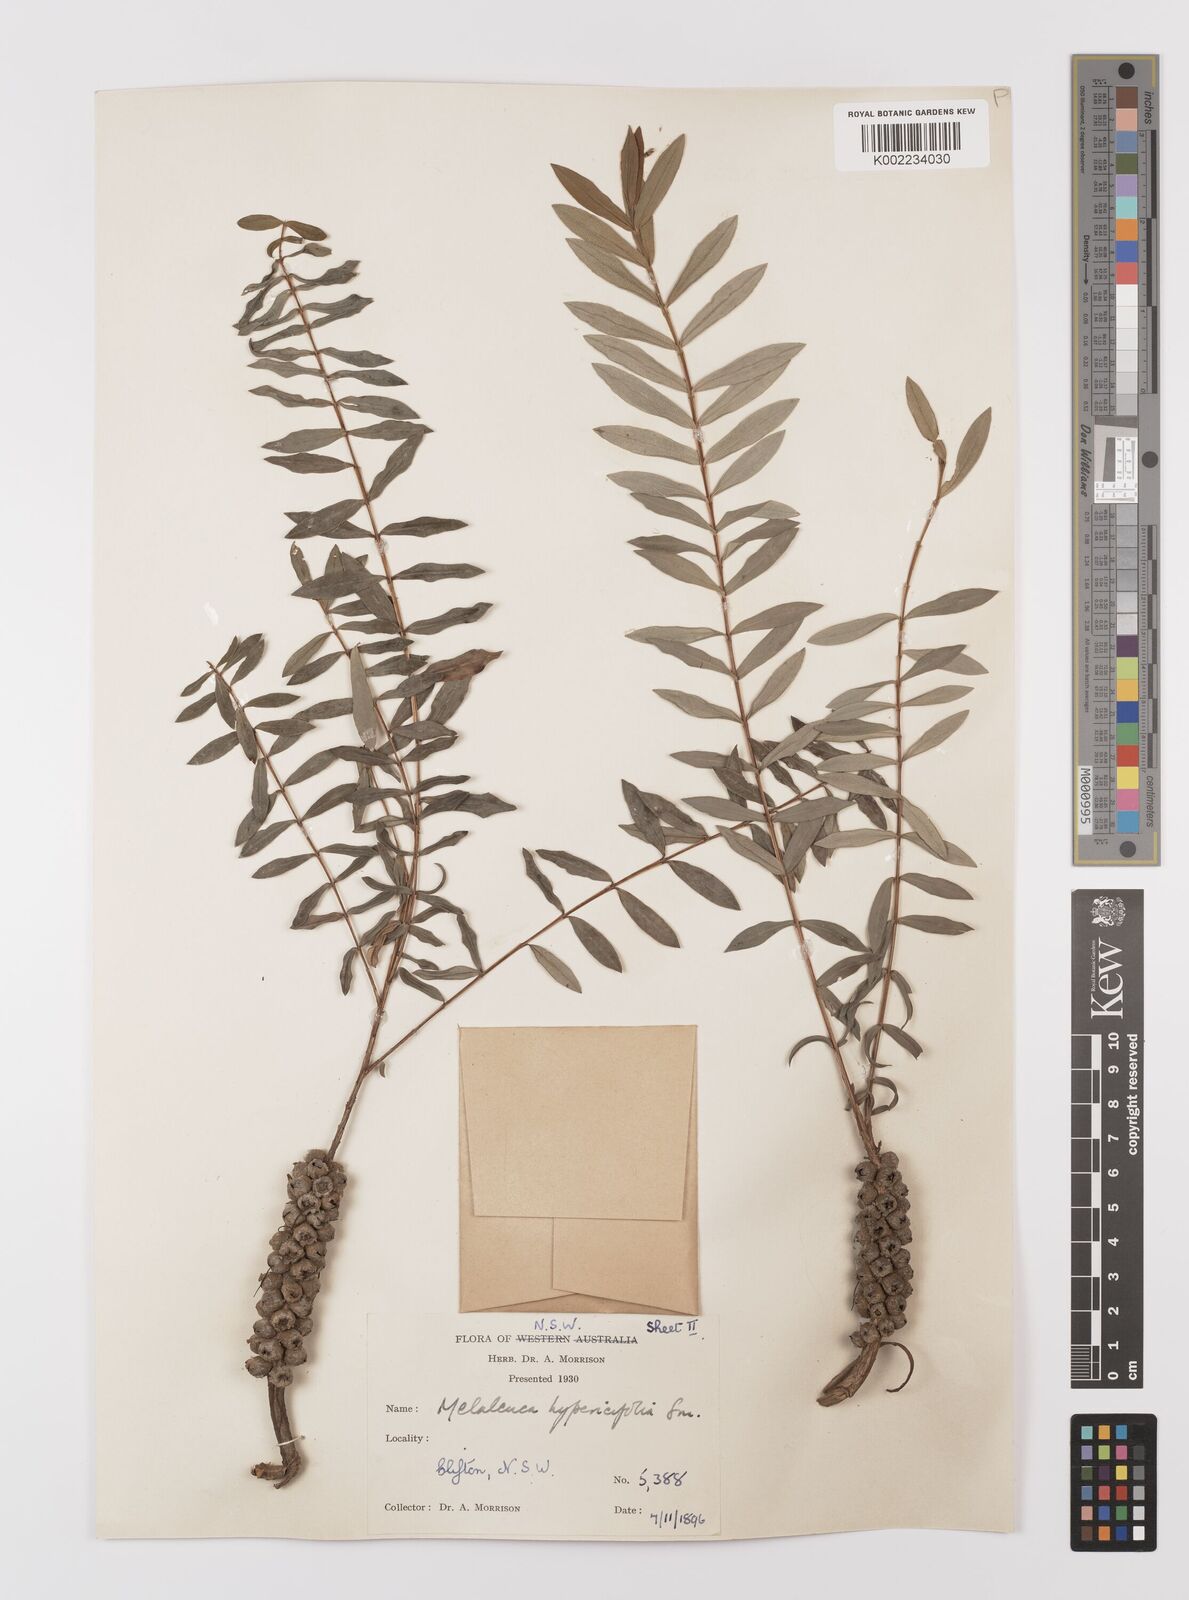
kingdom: Plantae
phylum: Tracheophyta
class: Magnoliopsida
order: Myrtales
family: Myrtaceae
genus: Melaleuca
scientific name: Melaleuca hypericifolia
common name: Red honey myrtle
